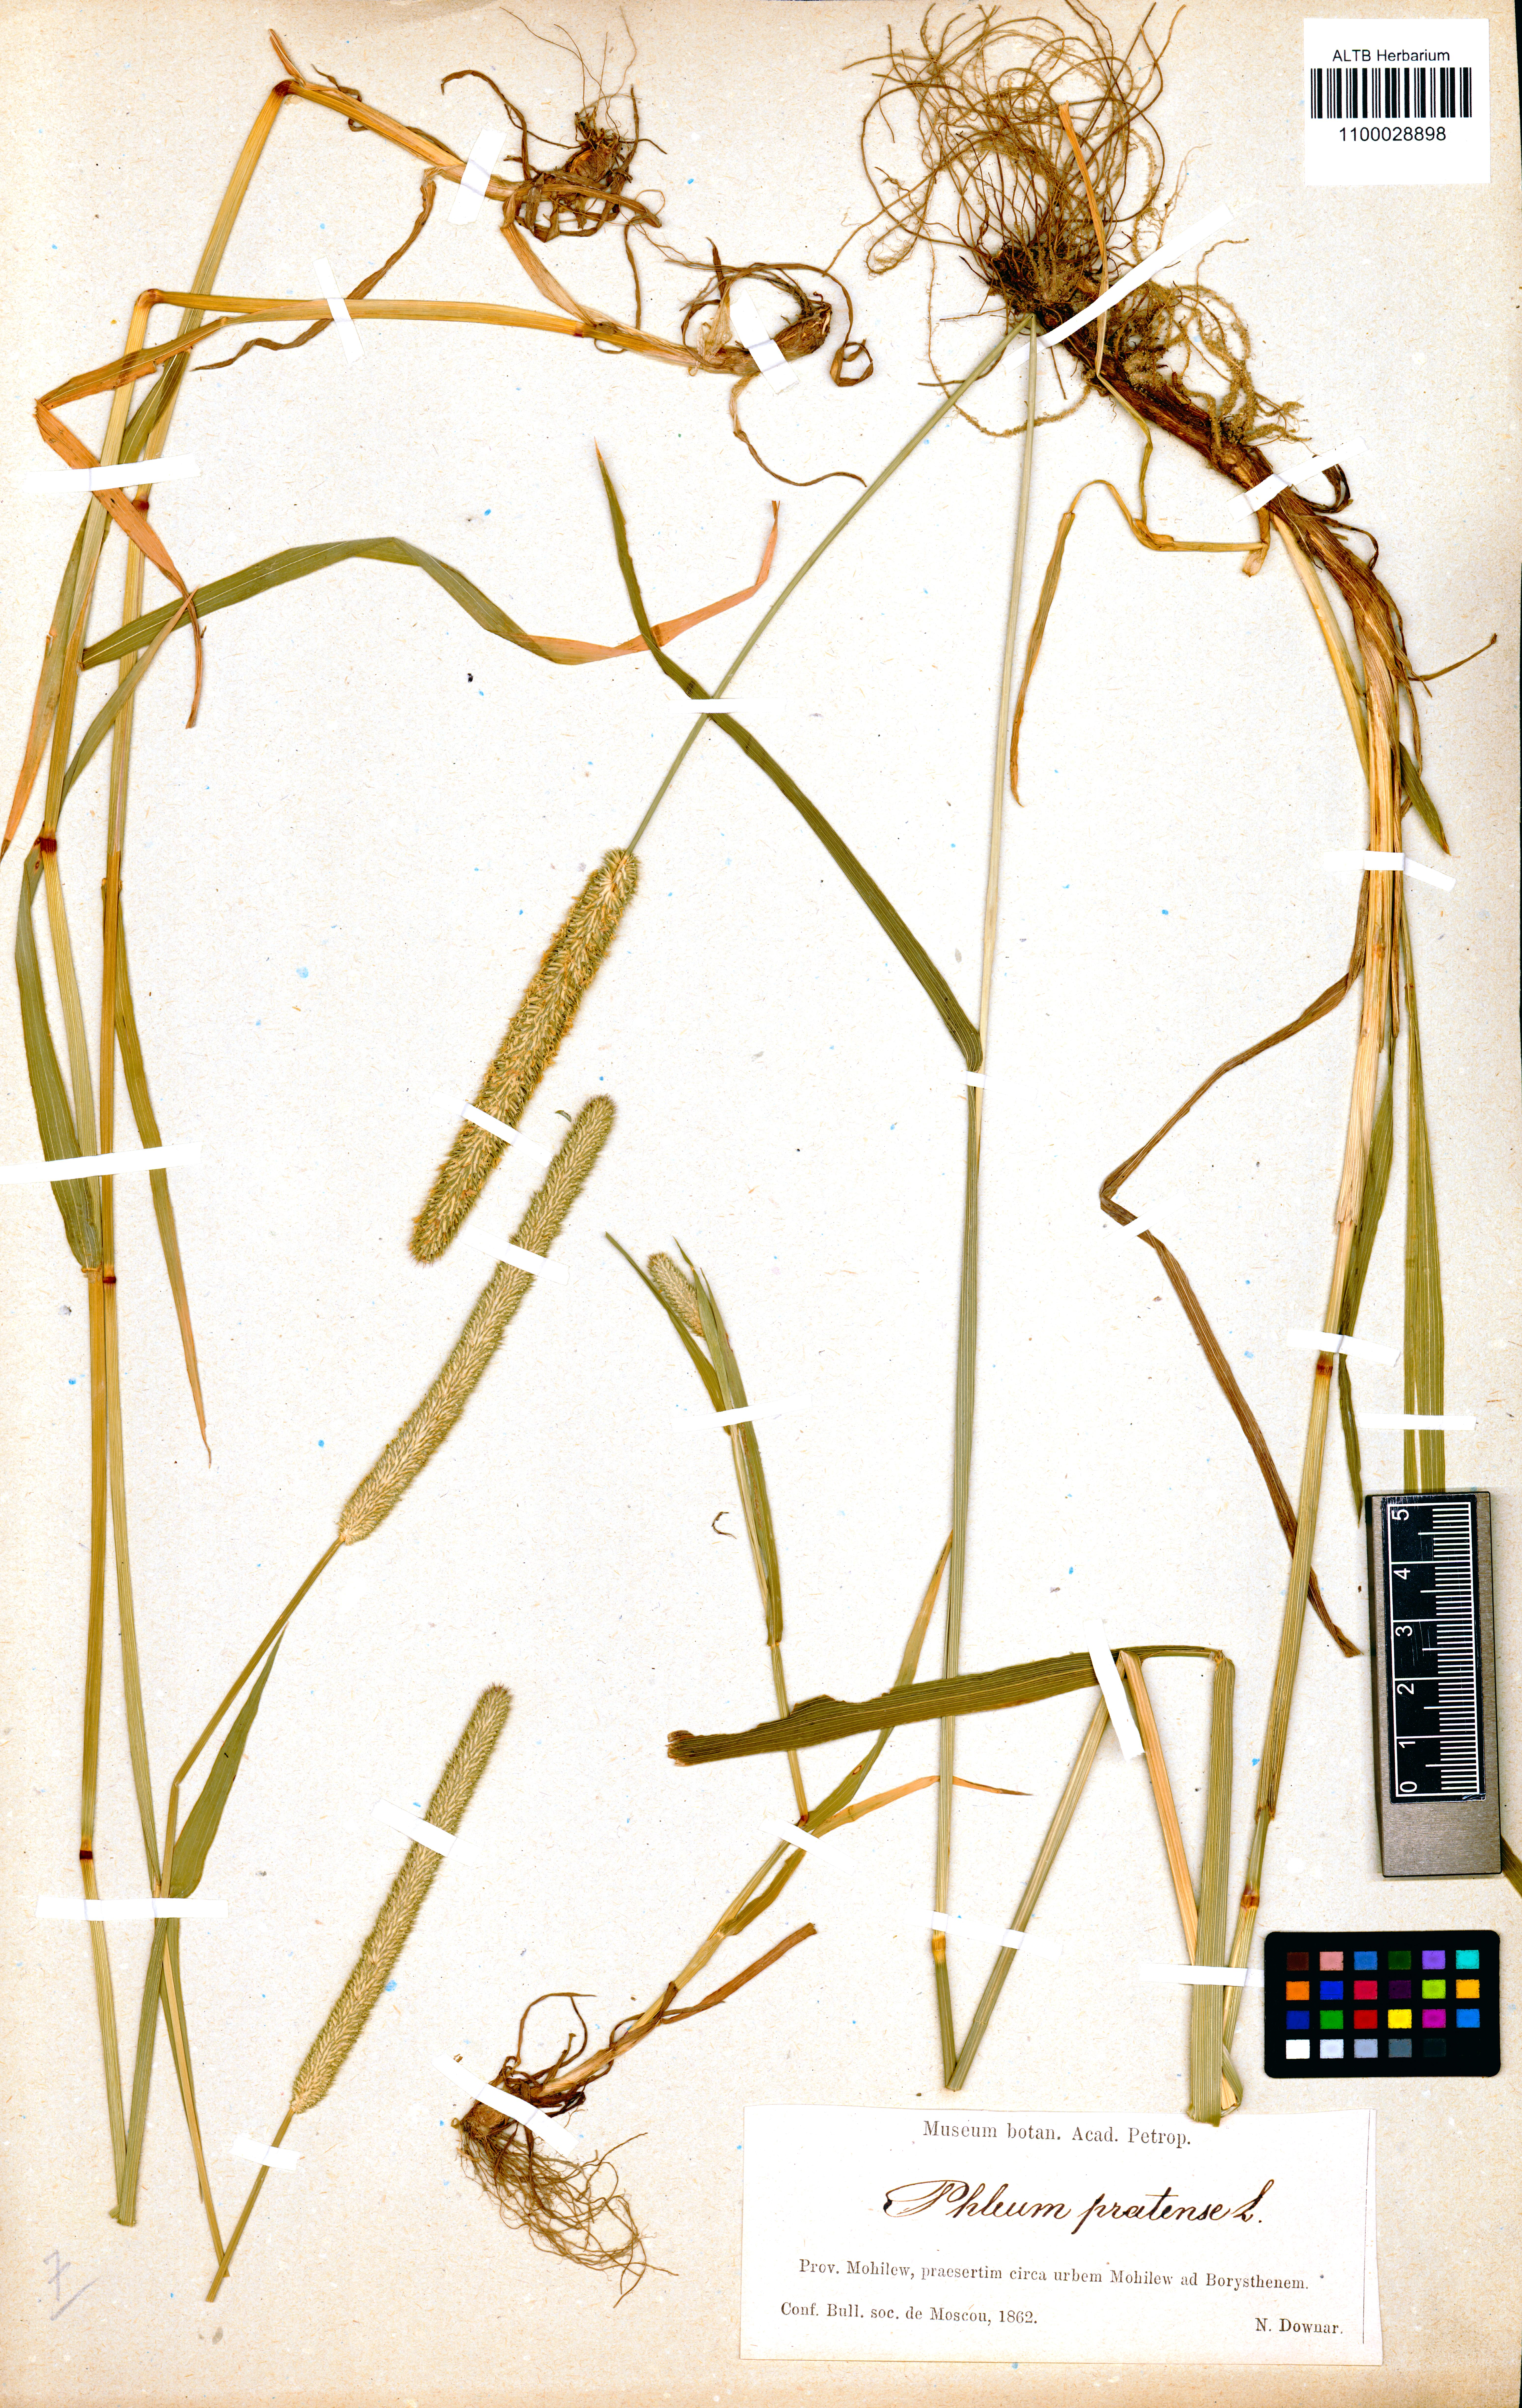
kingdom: Plantae
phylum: Tracheophyta
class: Liliopsida
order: Poales
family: Poaceae
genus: Phleum
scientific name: Phleum pratense
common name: Timothy grass
